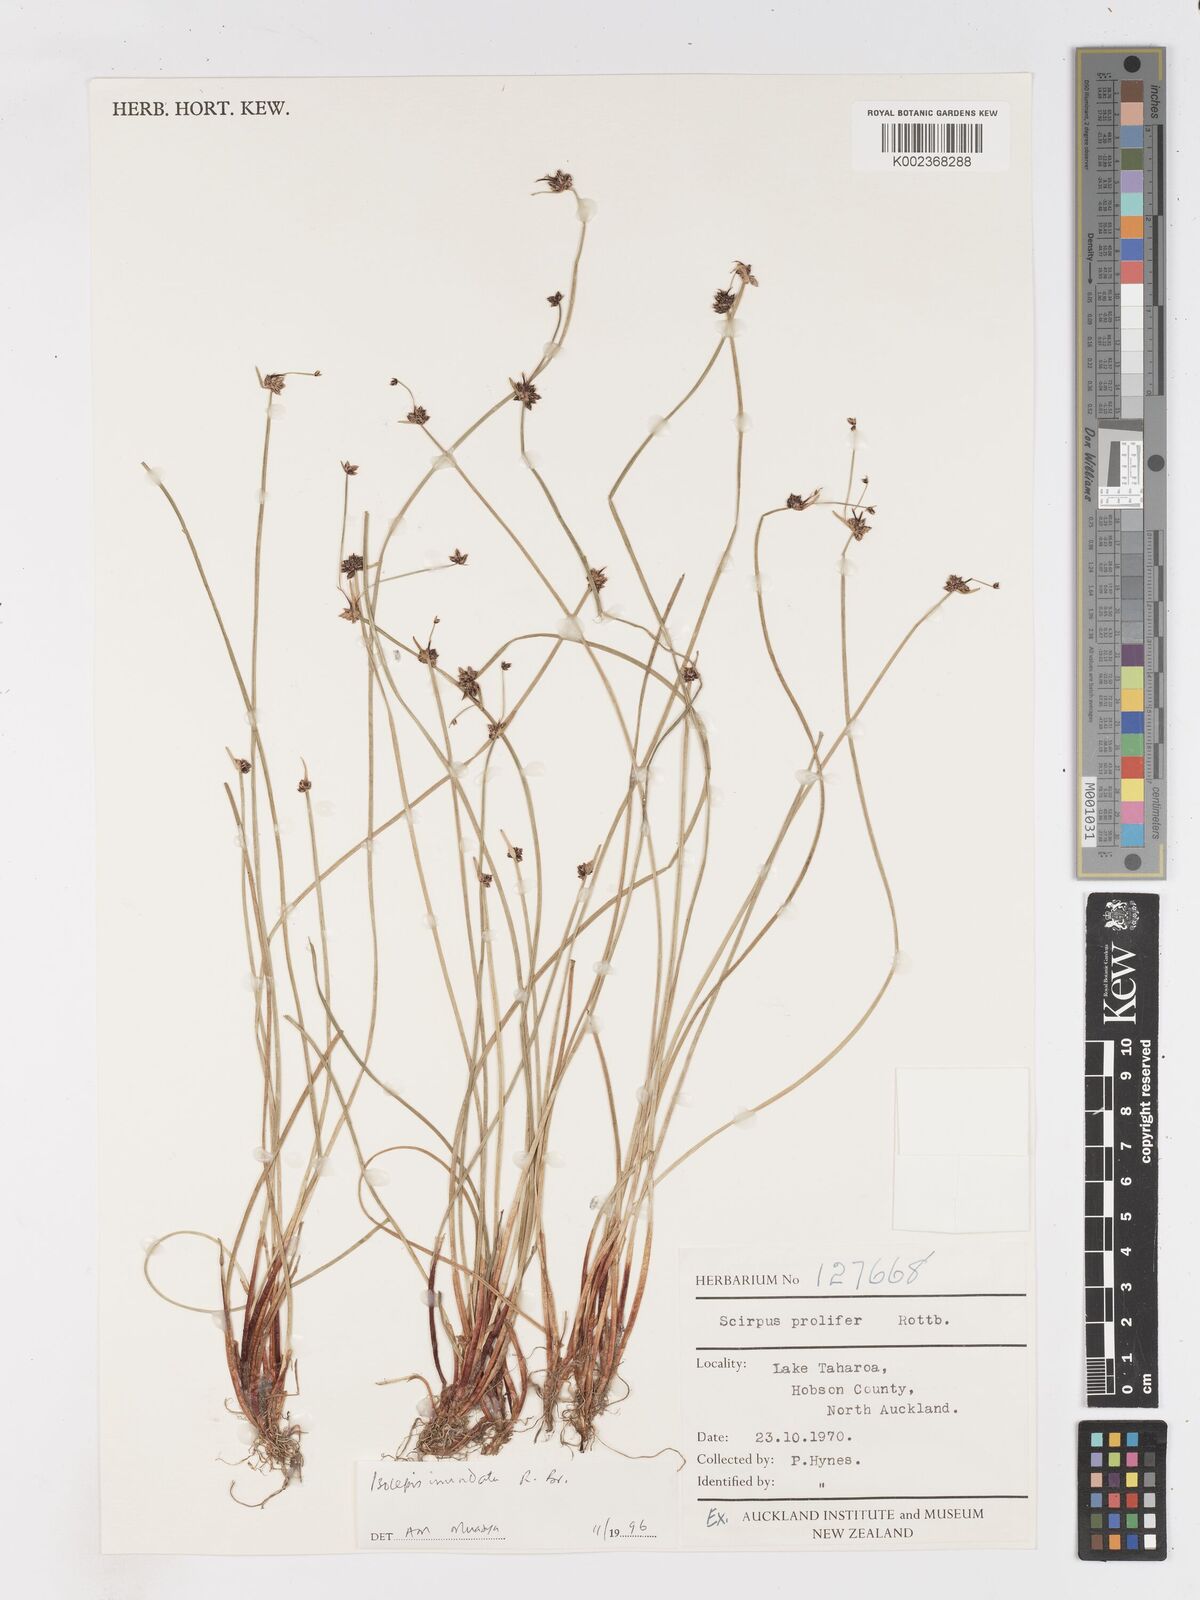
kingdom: Plantae
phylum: Tracheophyta
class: Liliopsida
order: Poales
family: Cyperaceae
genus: Isolepis
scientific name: Isolepis inundata
